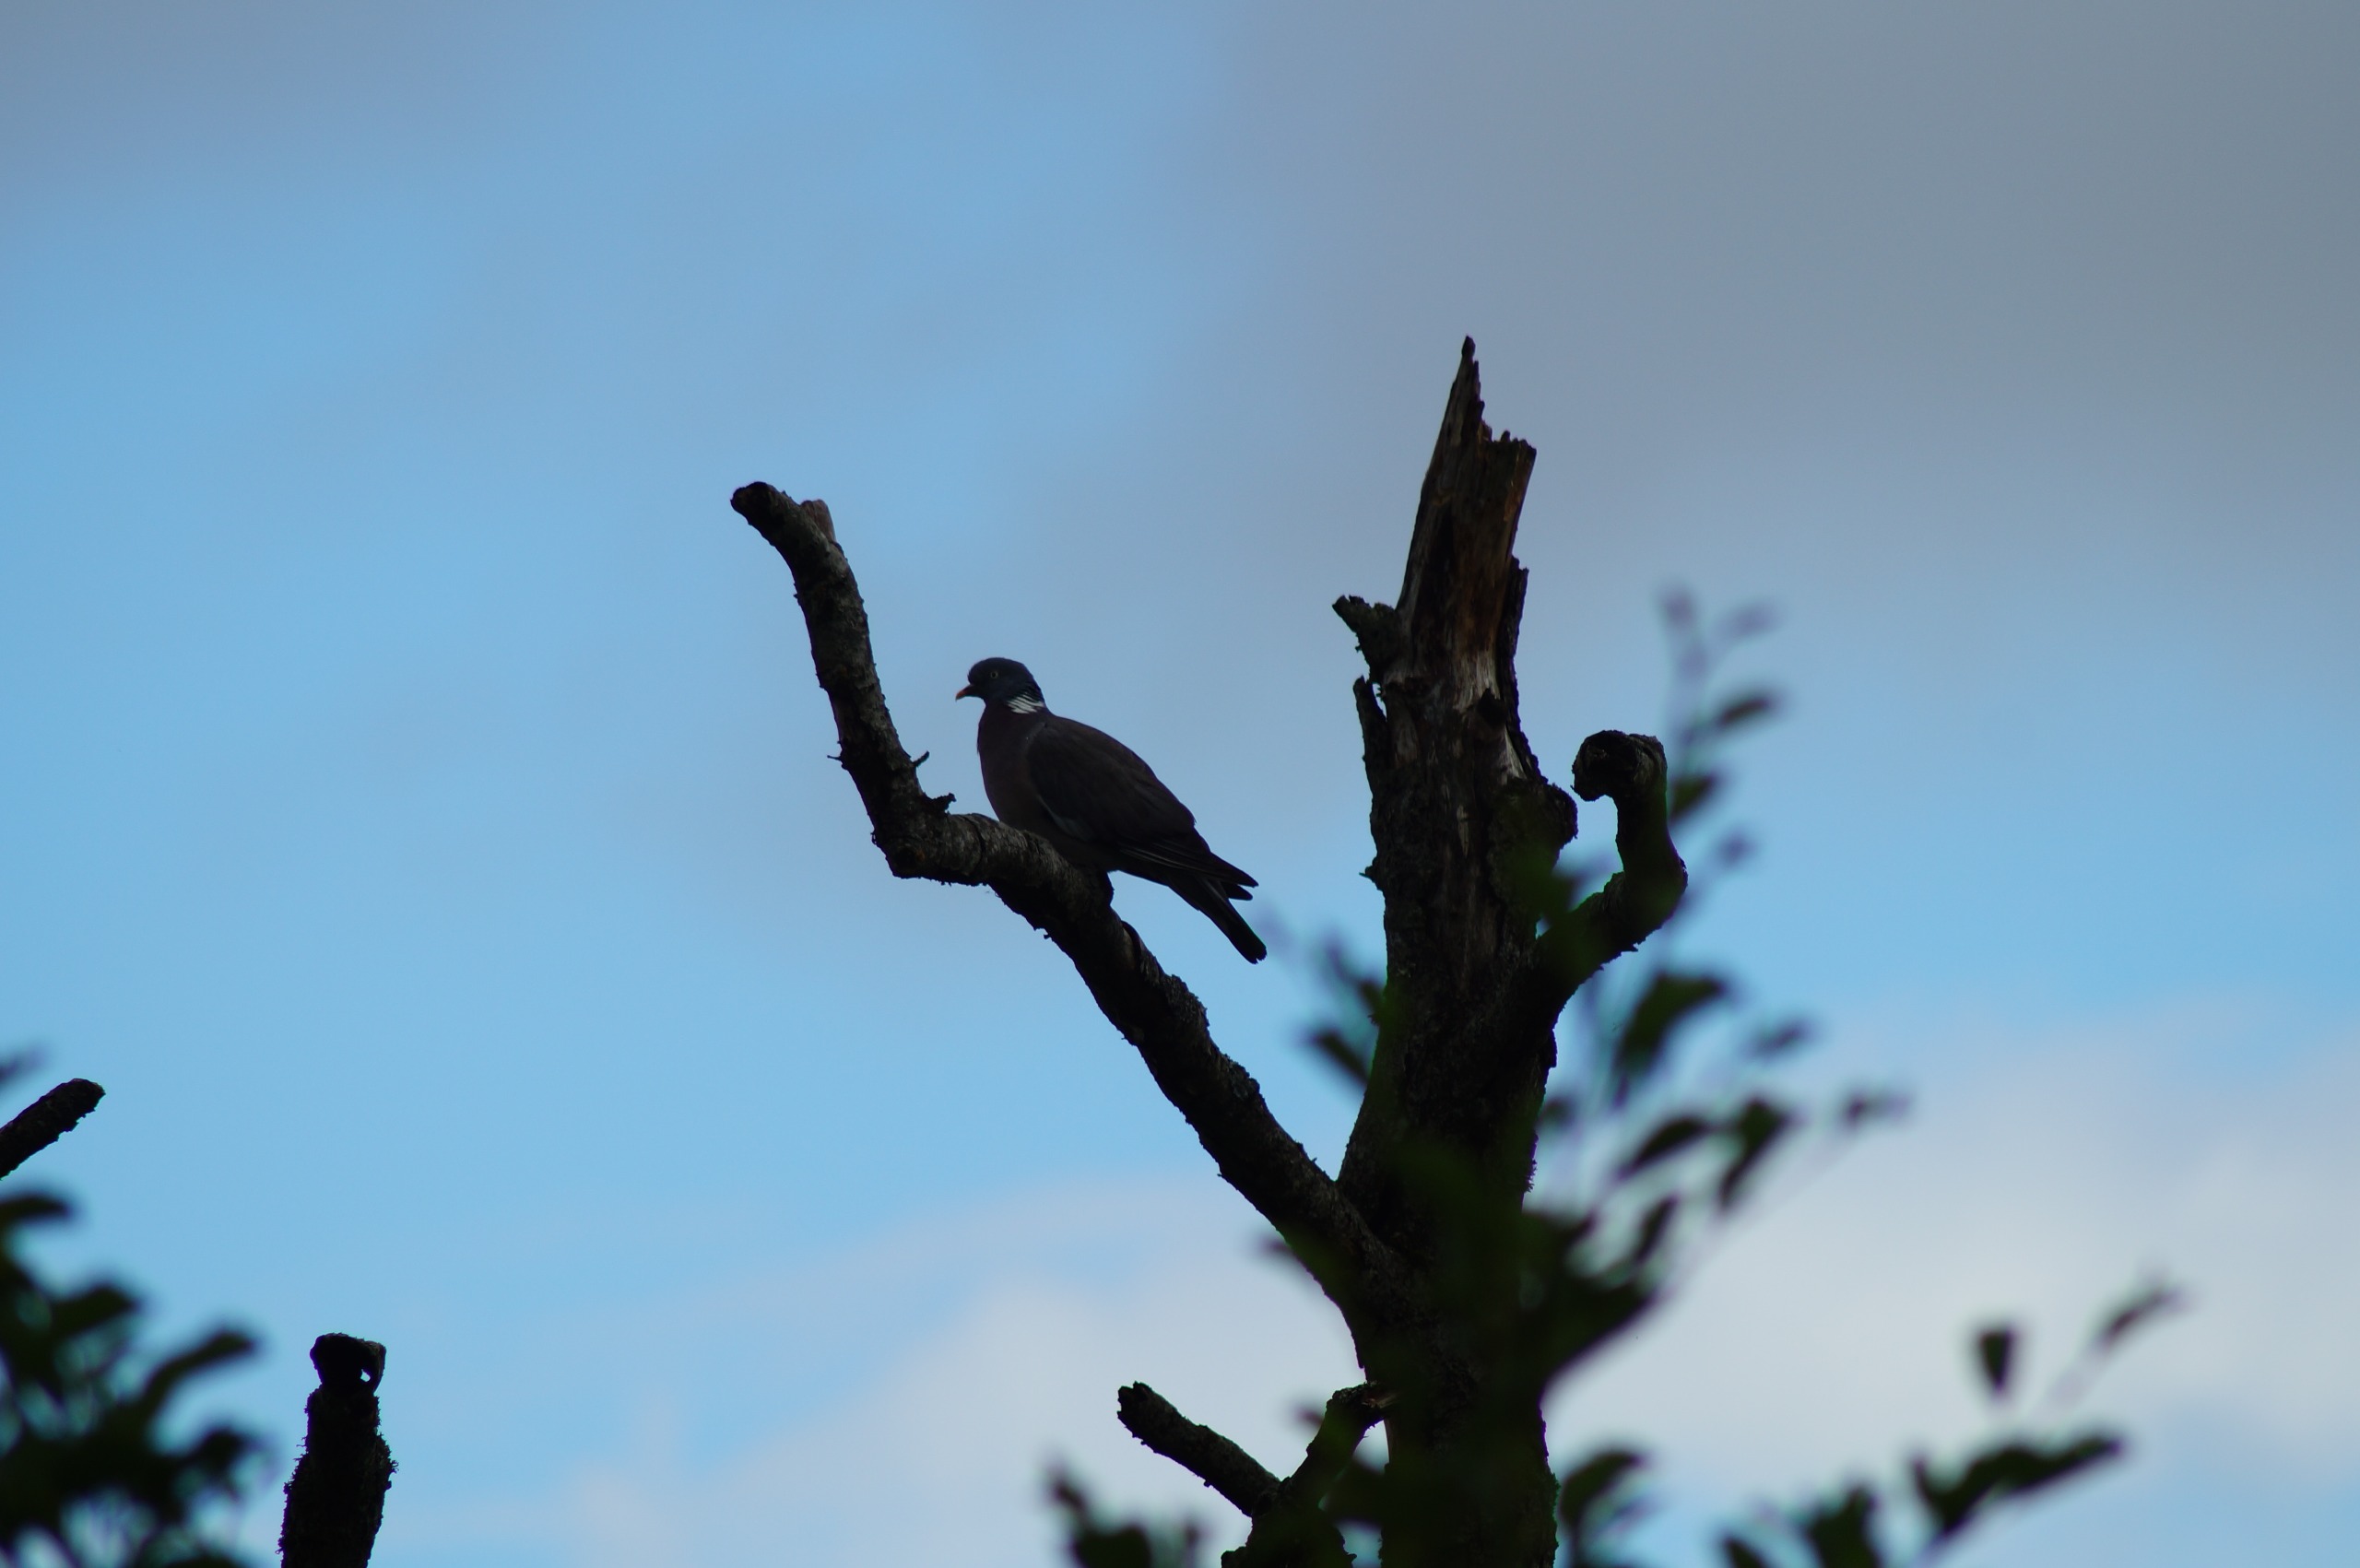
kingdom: Animalia
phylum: Chordata
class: Aves
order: Columbiformes
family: Columbidae
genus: Columba
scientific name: Columba palumbus
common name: Ringdue
